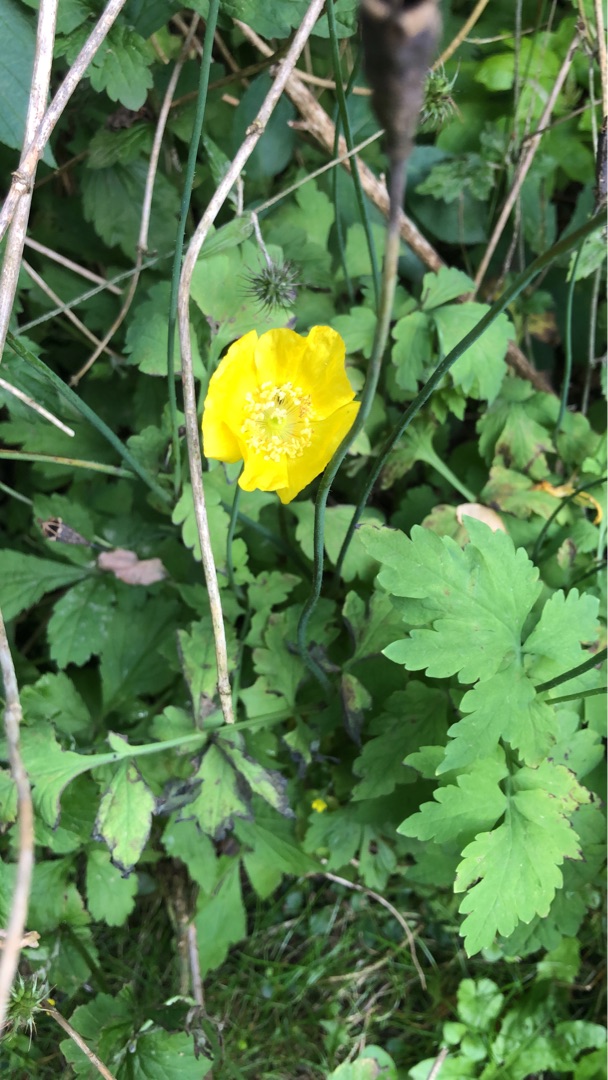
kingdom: Plantae
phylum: Tracheophyta
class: Magnoliopsida
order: Ranunculales
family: Papaveraceae
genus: Papaver
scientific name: Papaver cambricum
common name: Skov-valmue
